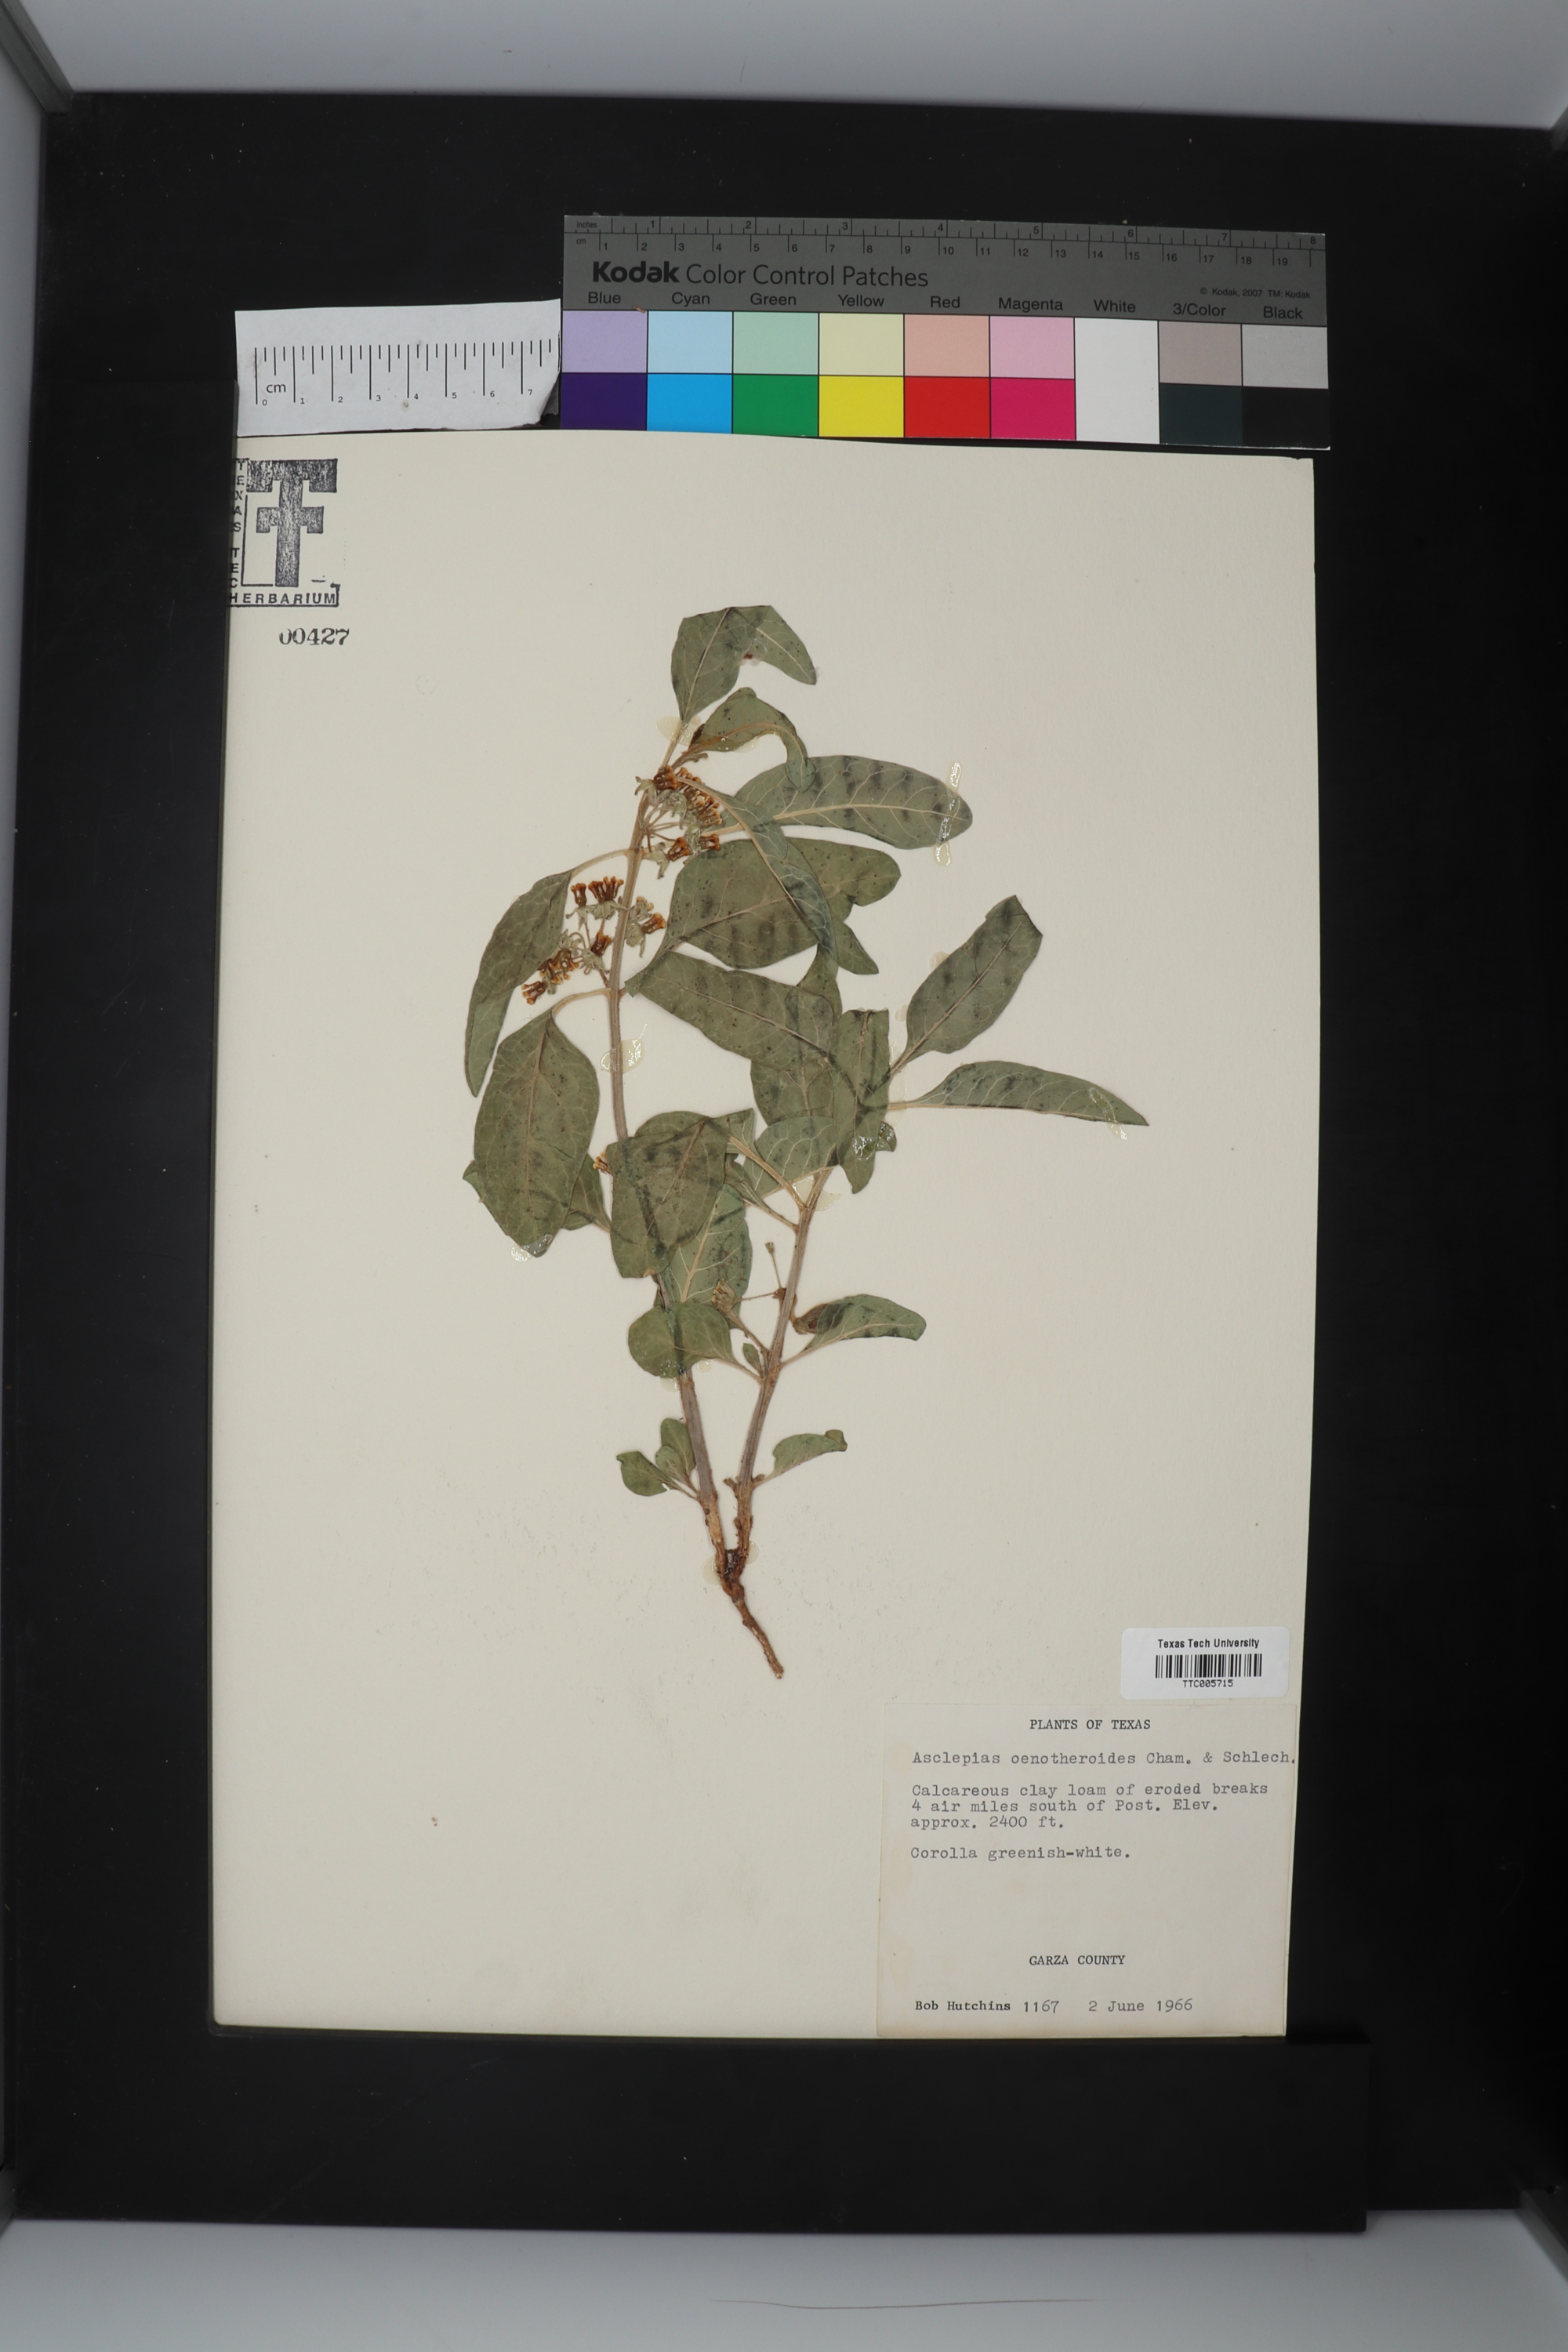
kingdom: Plantae
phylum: Tracheophyta
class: Magnoliopsida
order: Gentianales
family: Apocynaceae
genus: Asclepias
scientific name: Asclepias oenotheroides
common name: Zizotes milkweed
